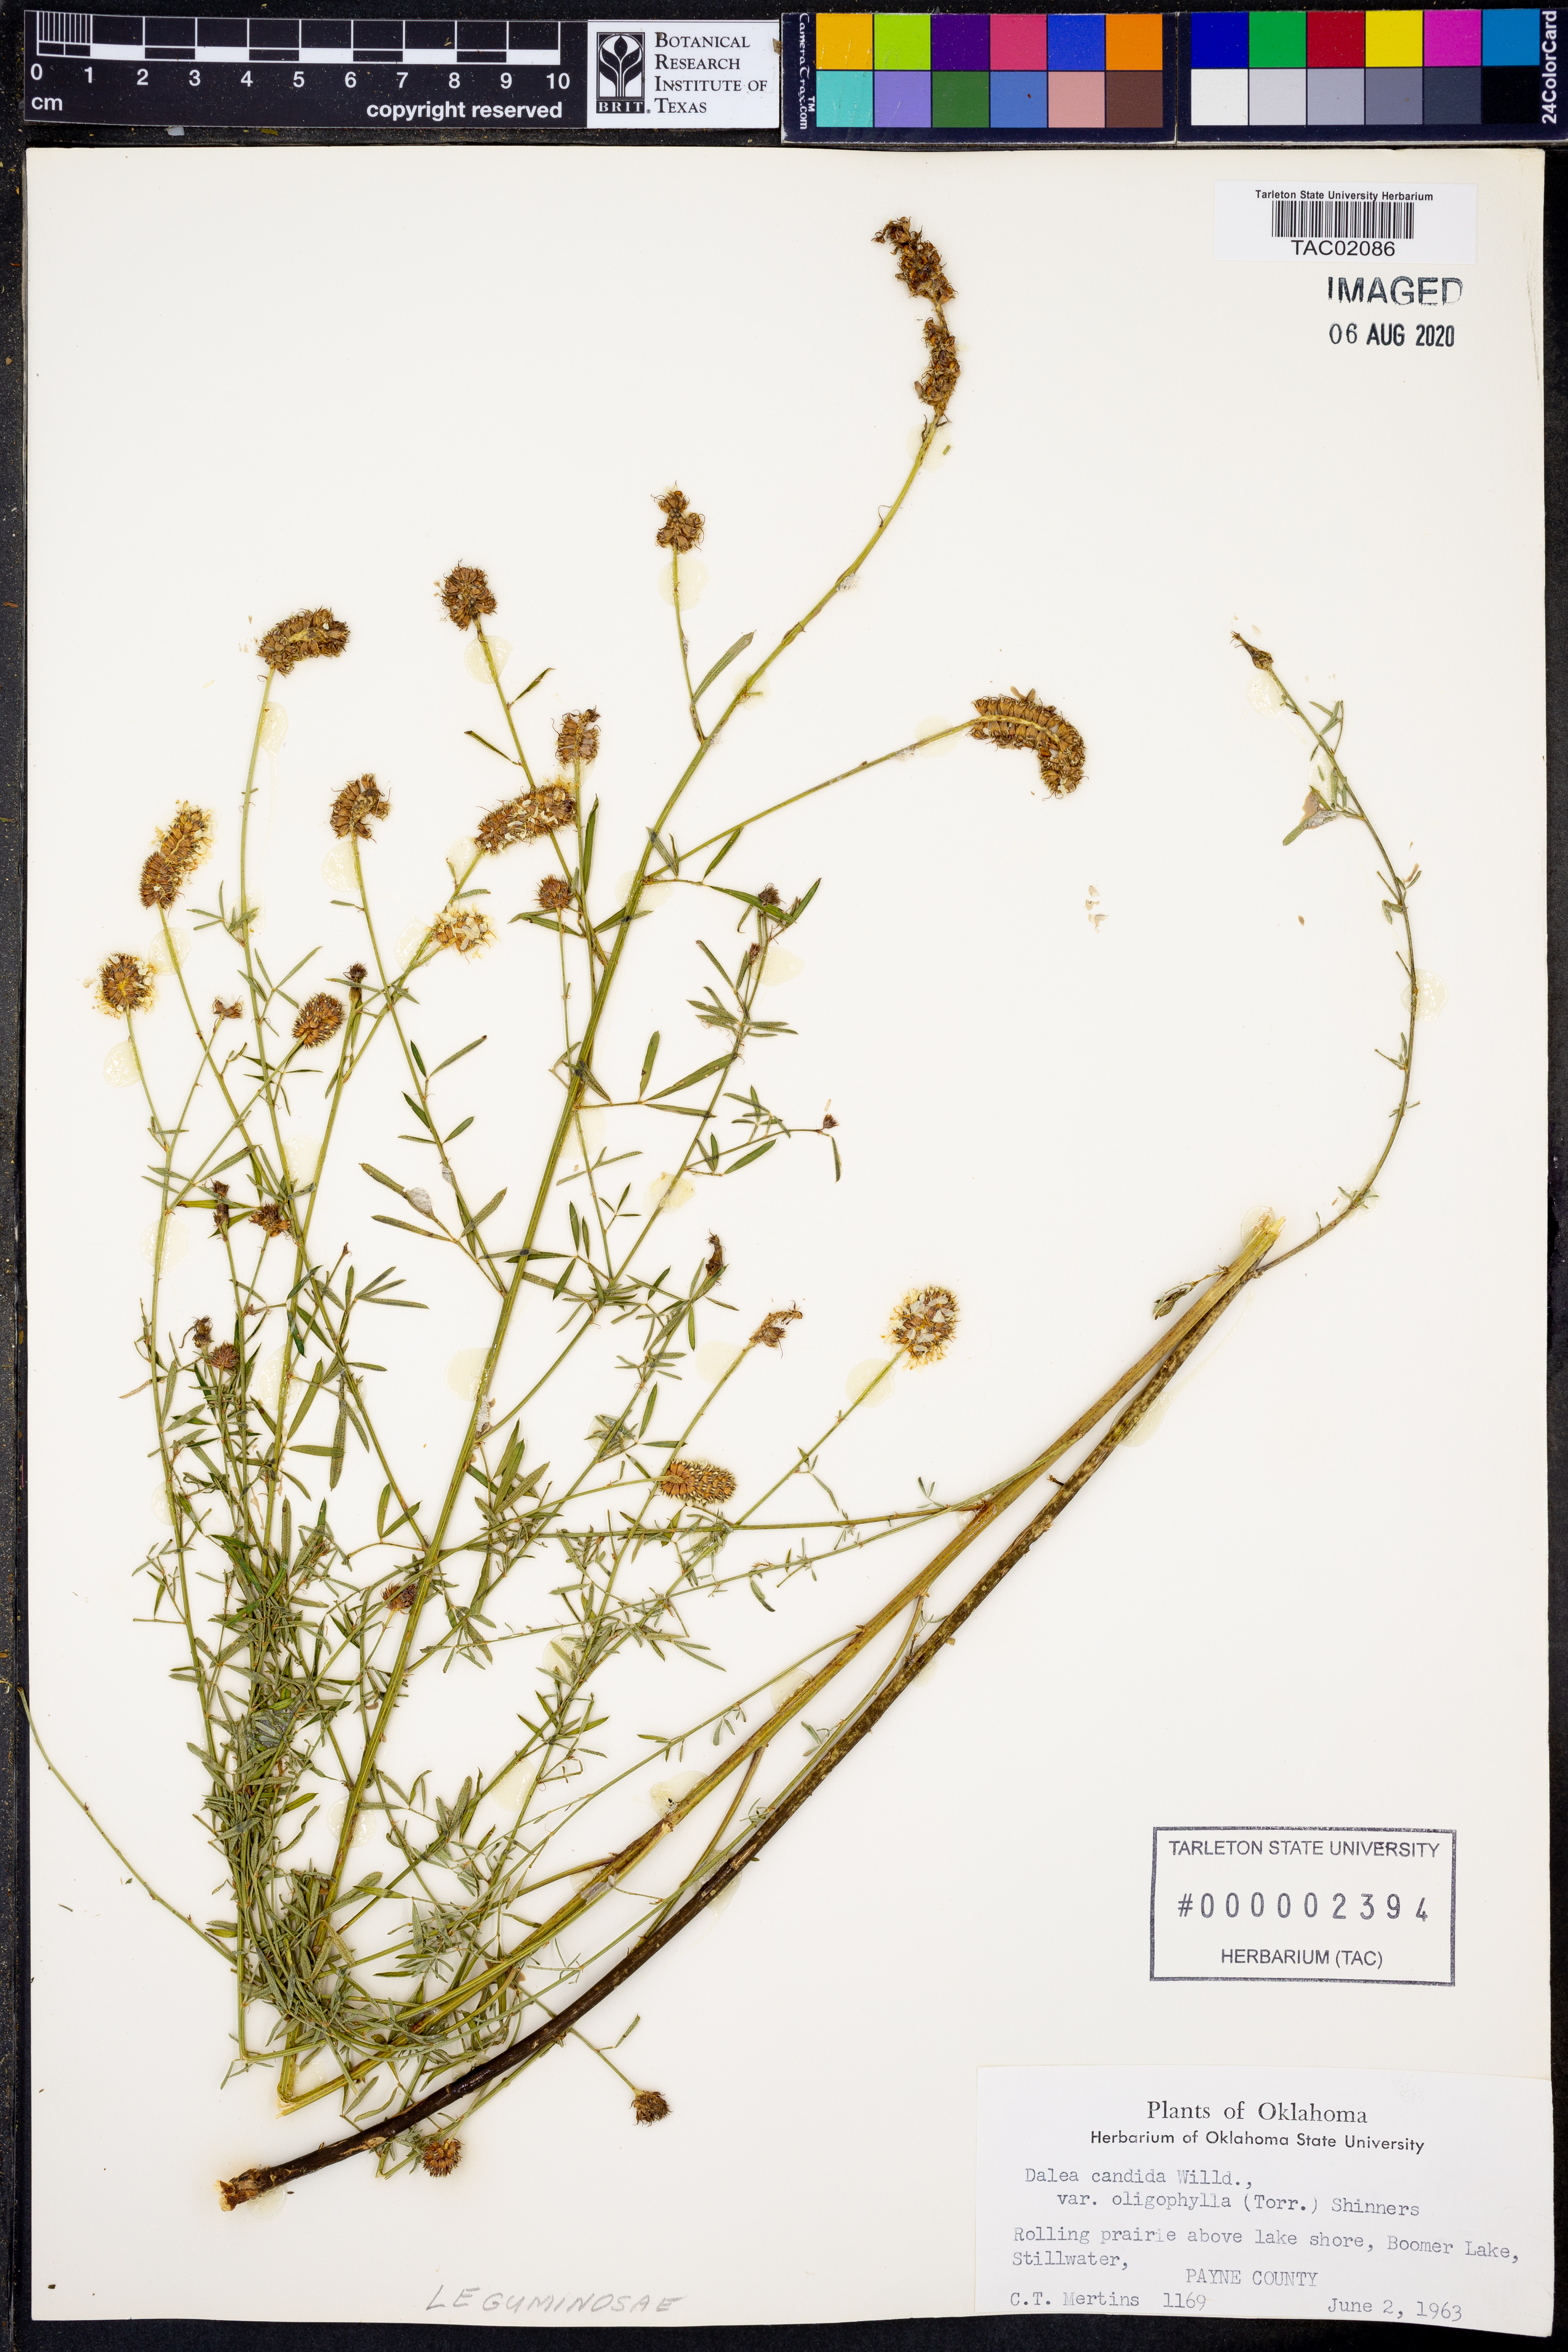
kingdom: Plantae
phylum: Tracheophyta
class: Magnoliopsida
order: Fabales
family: Fabaceae
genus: Dalea
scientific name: Dalea candida
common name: White prairie-clover
